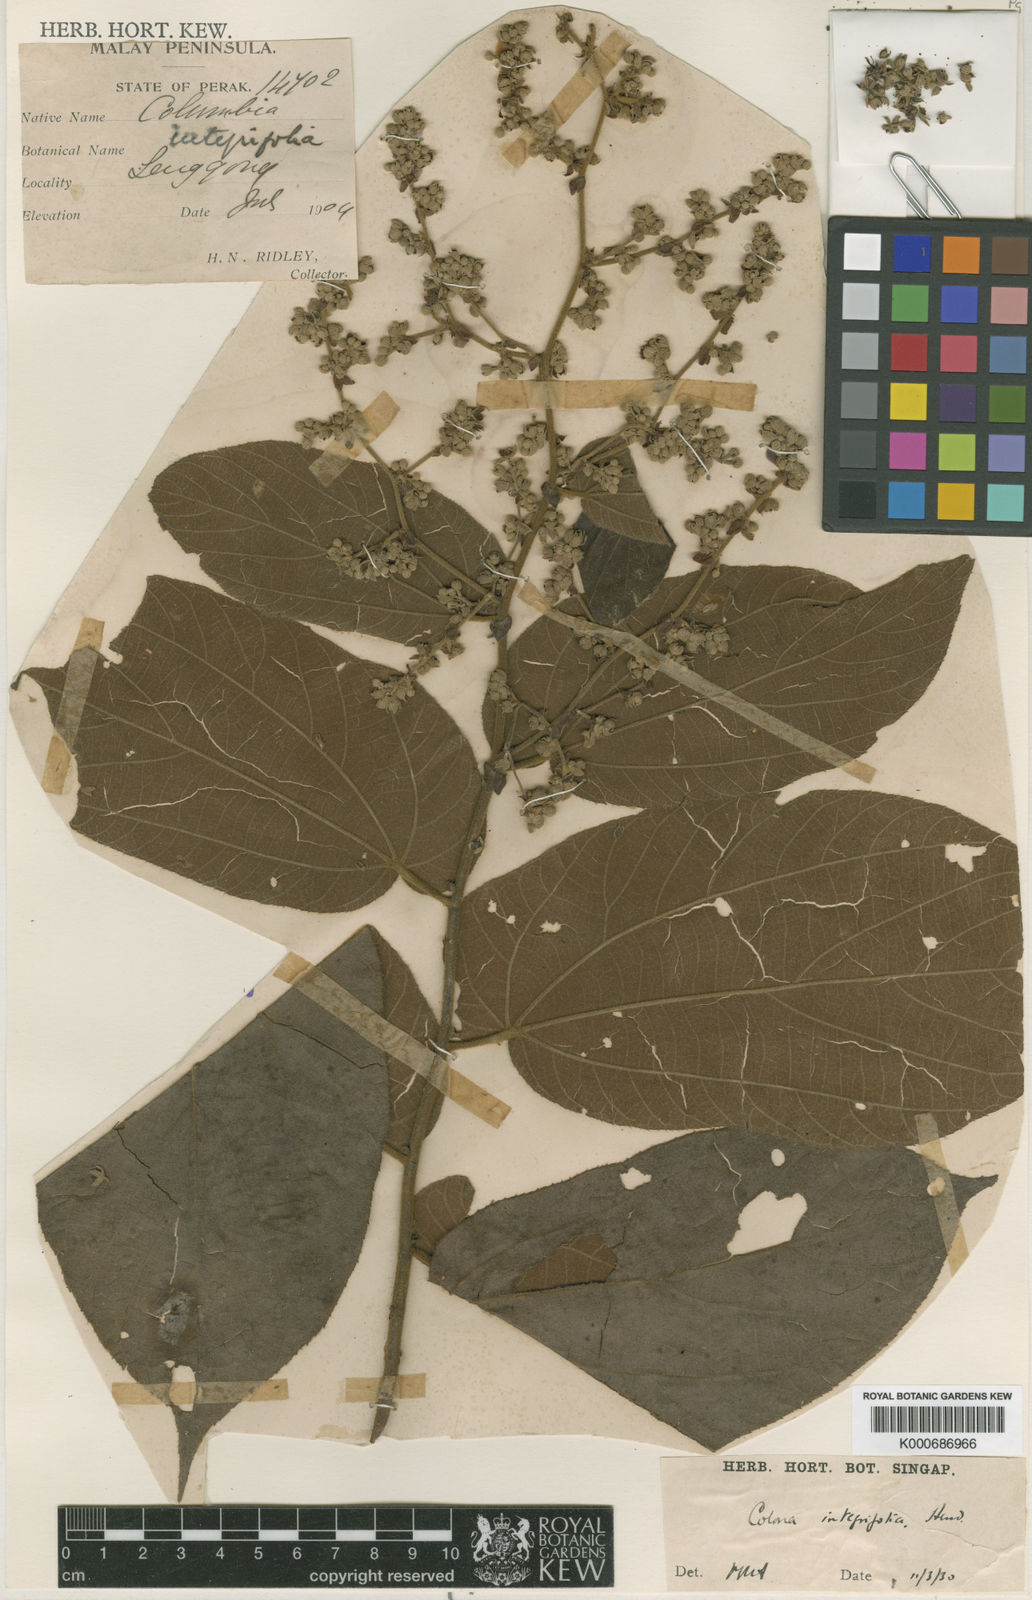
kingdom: Plantae
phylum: Tracheophyta
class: Magnoliopsida
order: Malvales
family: Malvaceae
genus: Colona
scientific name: Colona
